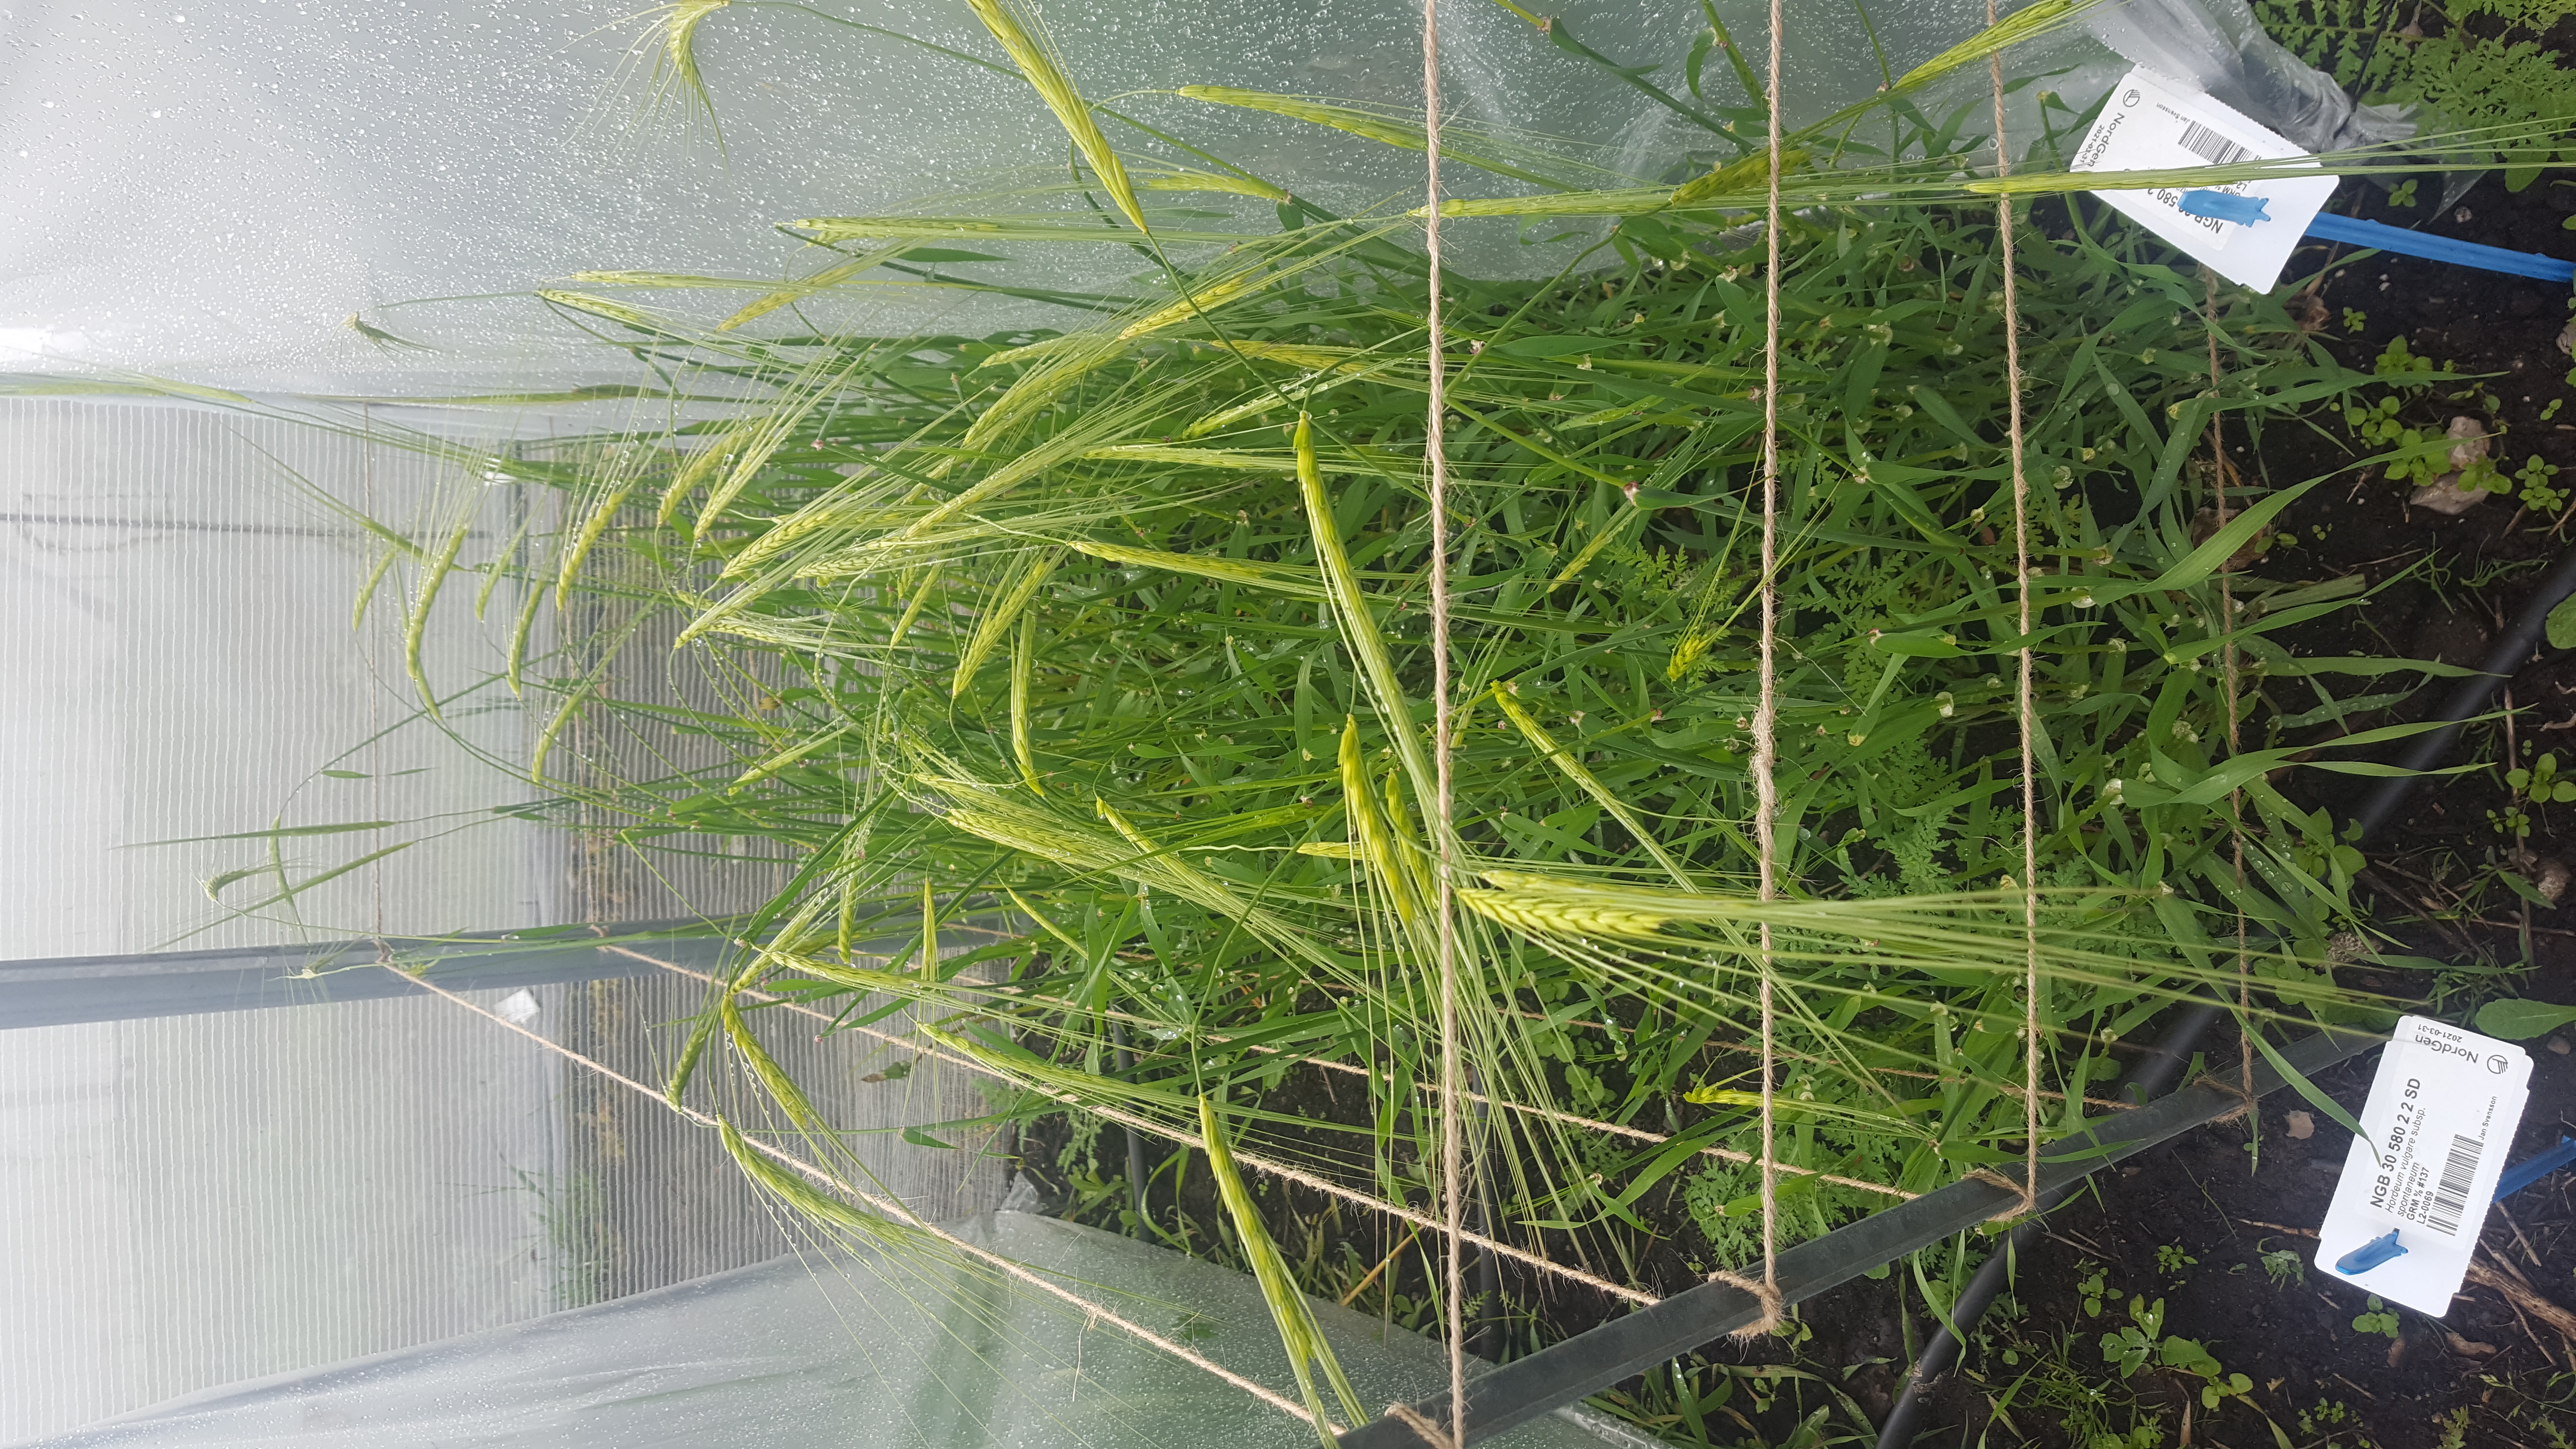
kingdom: Plantae
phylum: Tracheophyta
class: Liliopsida
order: Poales
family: Poaceae
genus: Hordeum
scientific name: Hordeum spontaneum
